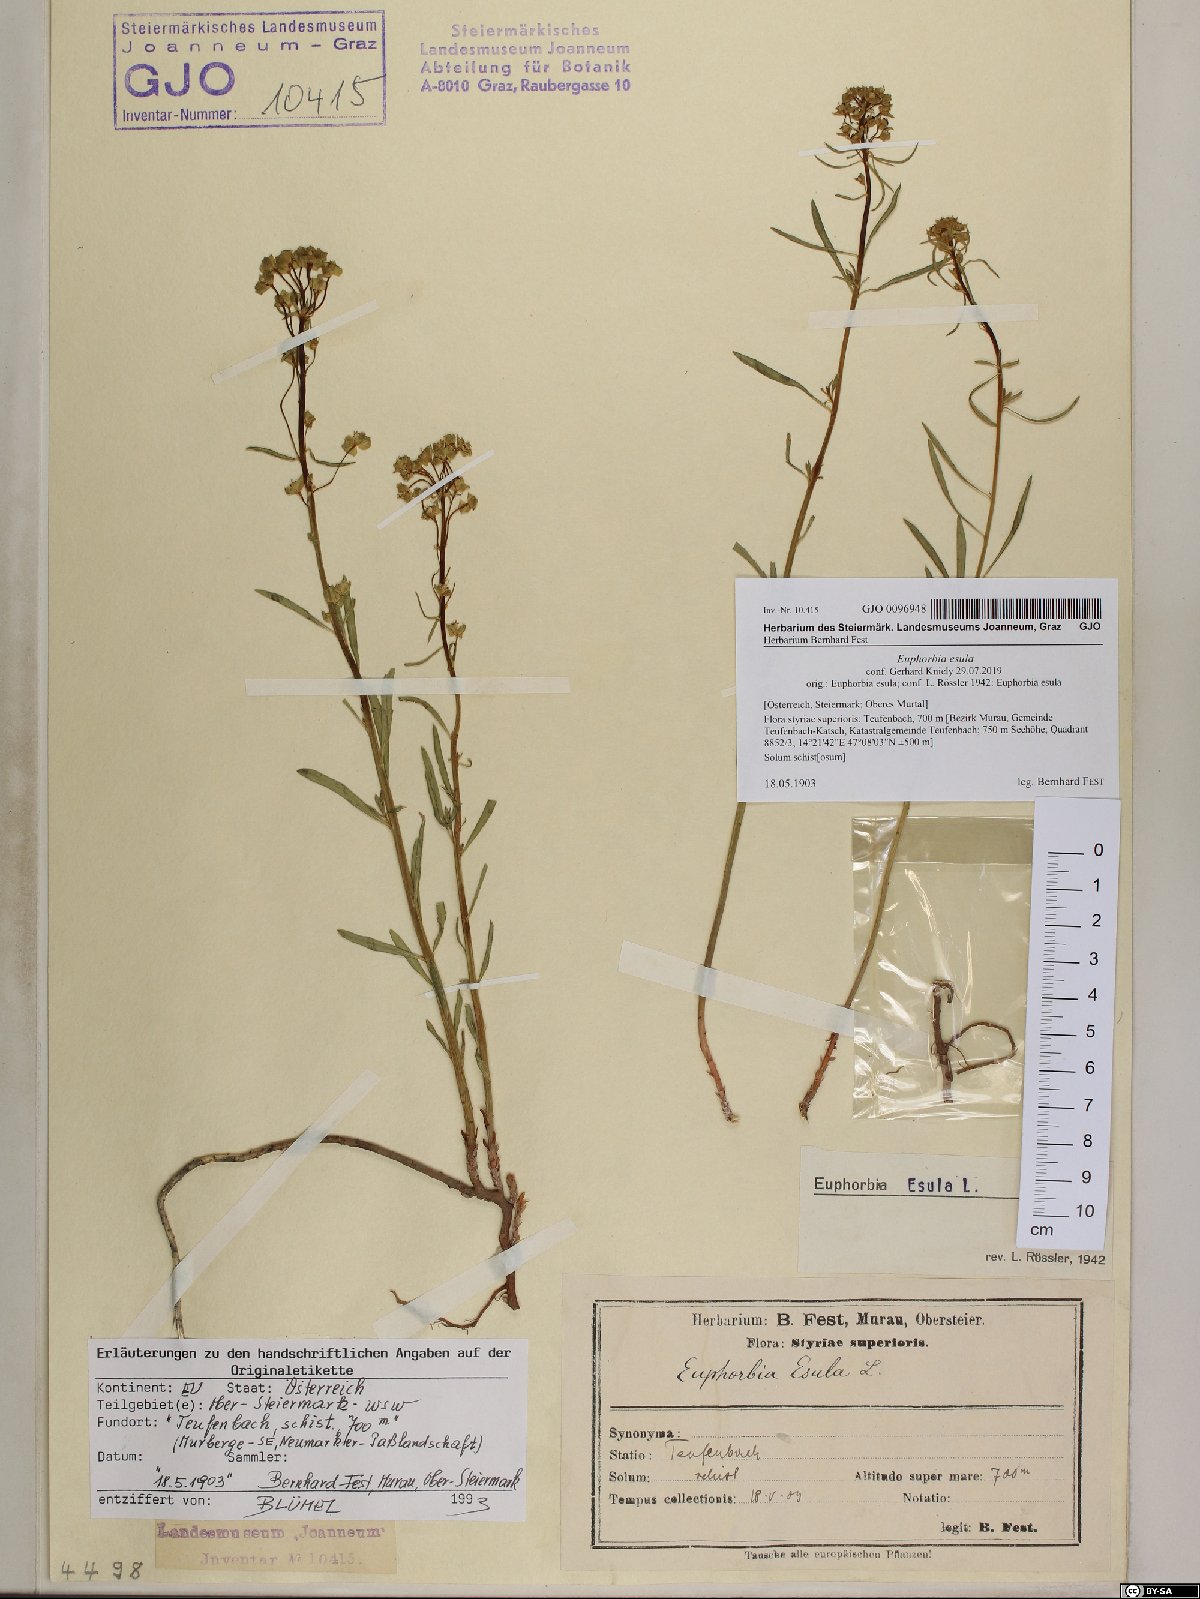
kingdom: Plantae
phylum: Tracheophyta
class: Magnoliopsida
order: Malpighiales
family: Euphorbiaceae
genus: Euphorbia
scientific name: Euphorbia esula
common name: Leafy spurge
